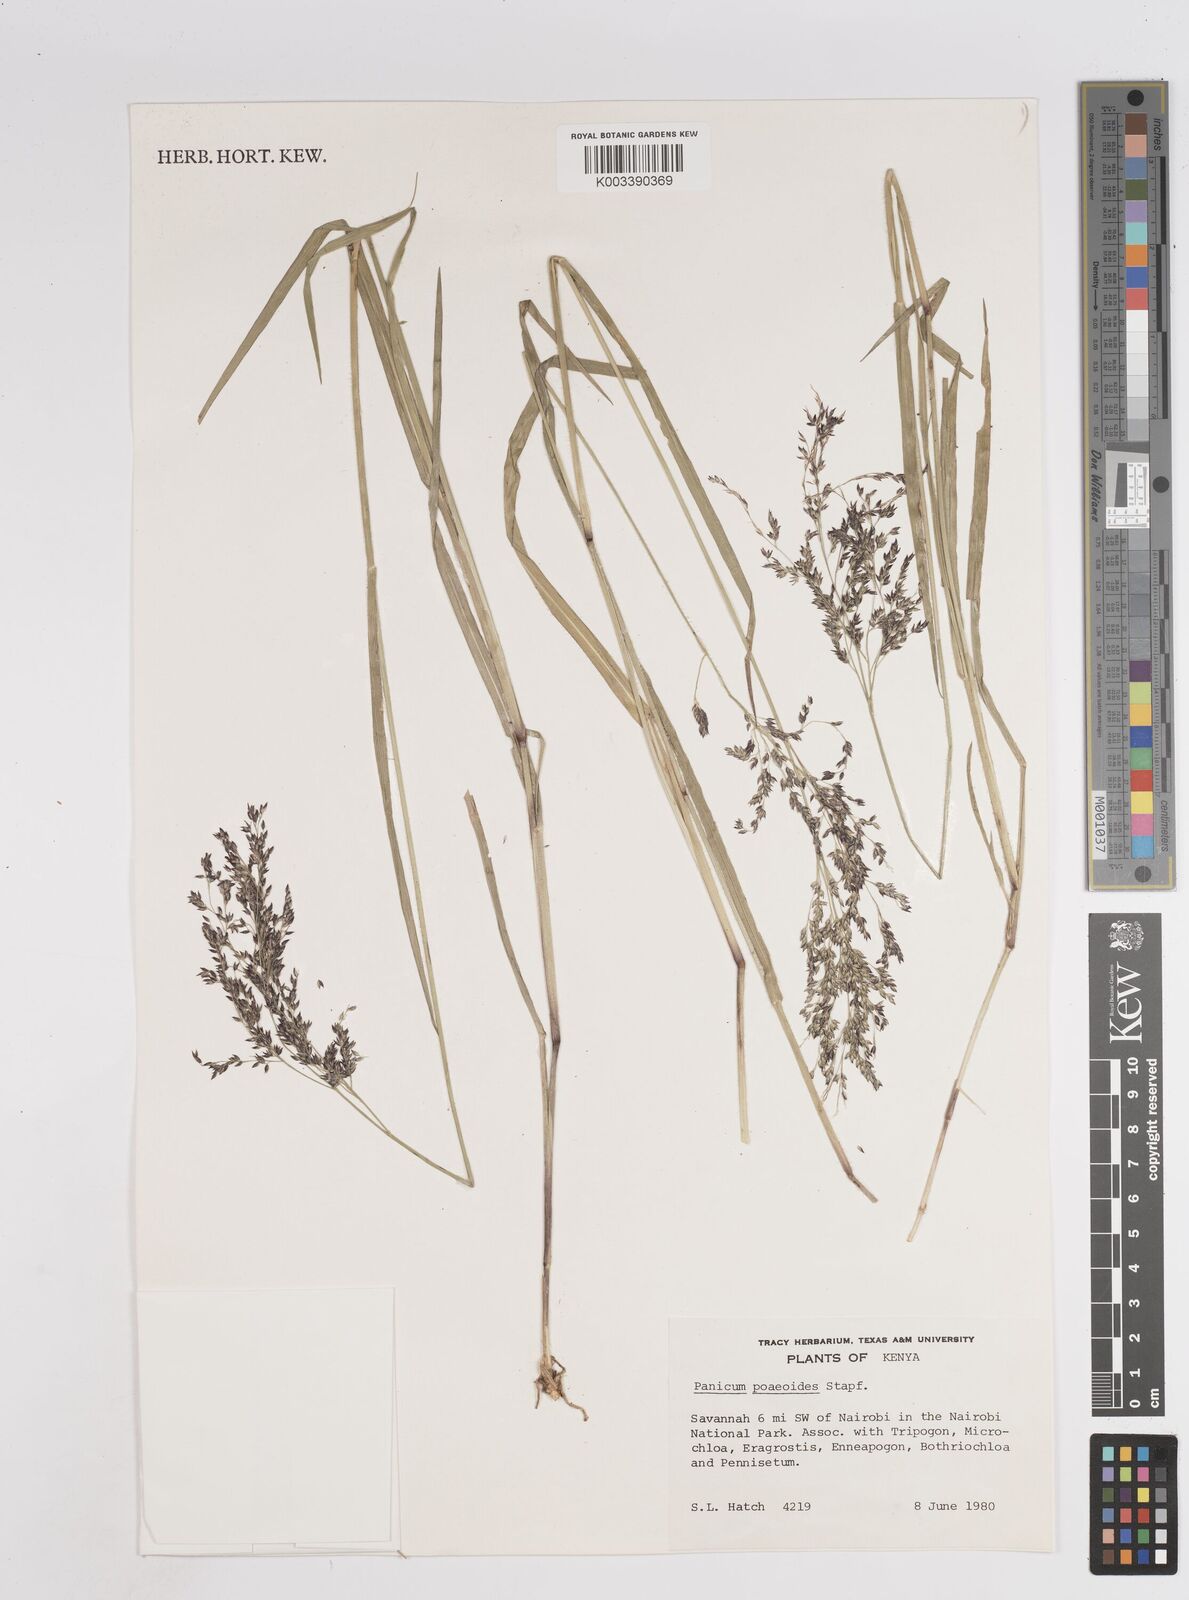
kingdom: Plantae
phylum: Tracheophyta
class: Liliopsida
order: Poales
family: Poaceae
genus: Panicum
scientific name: Panicum
